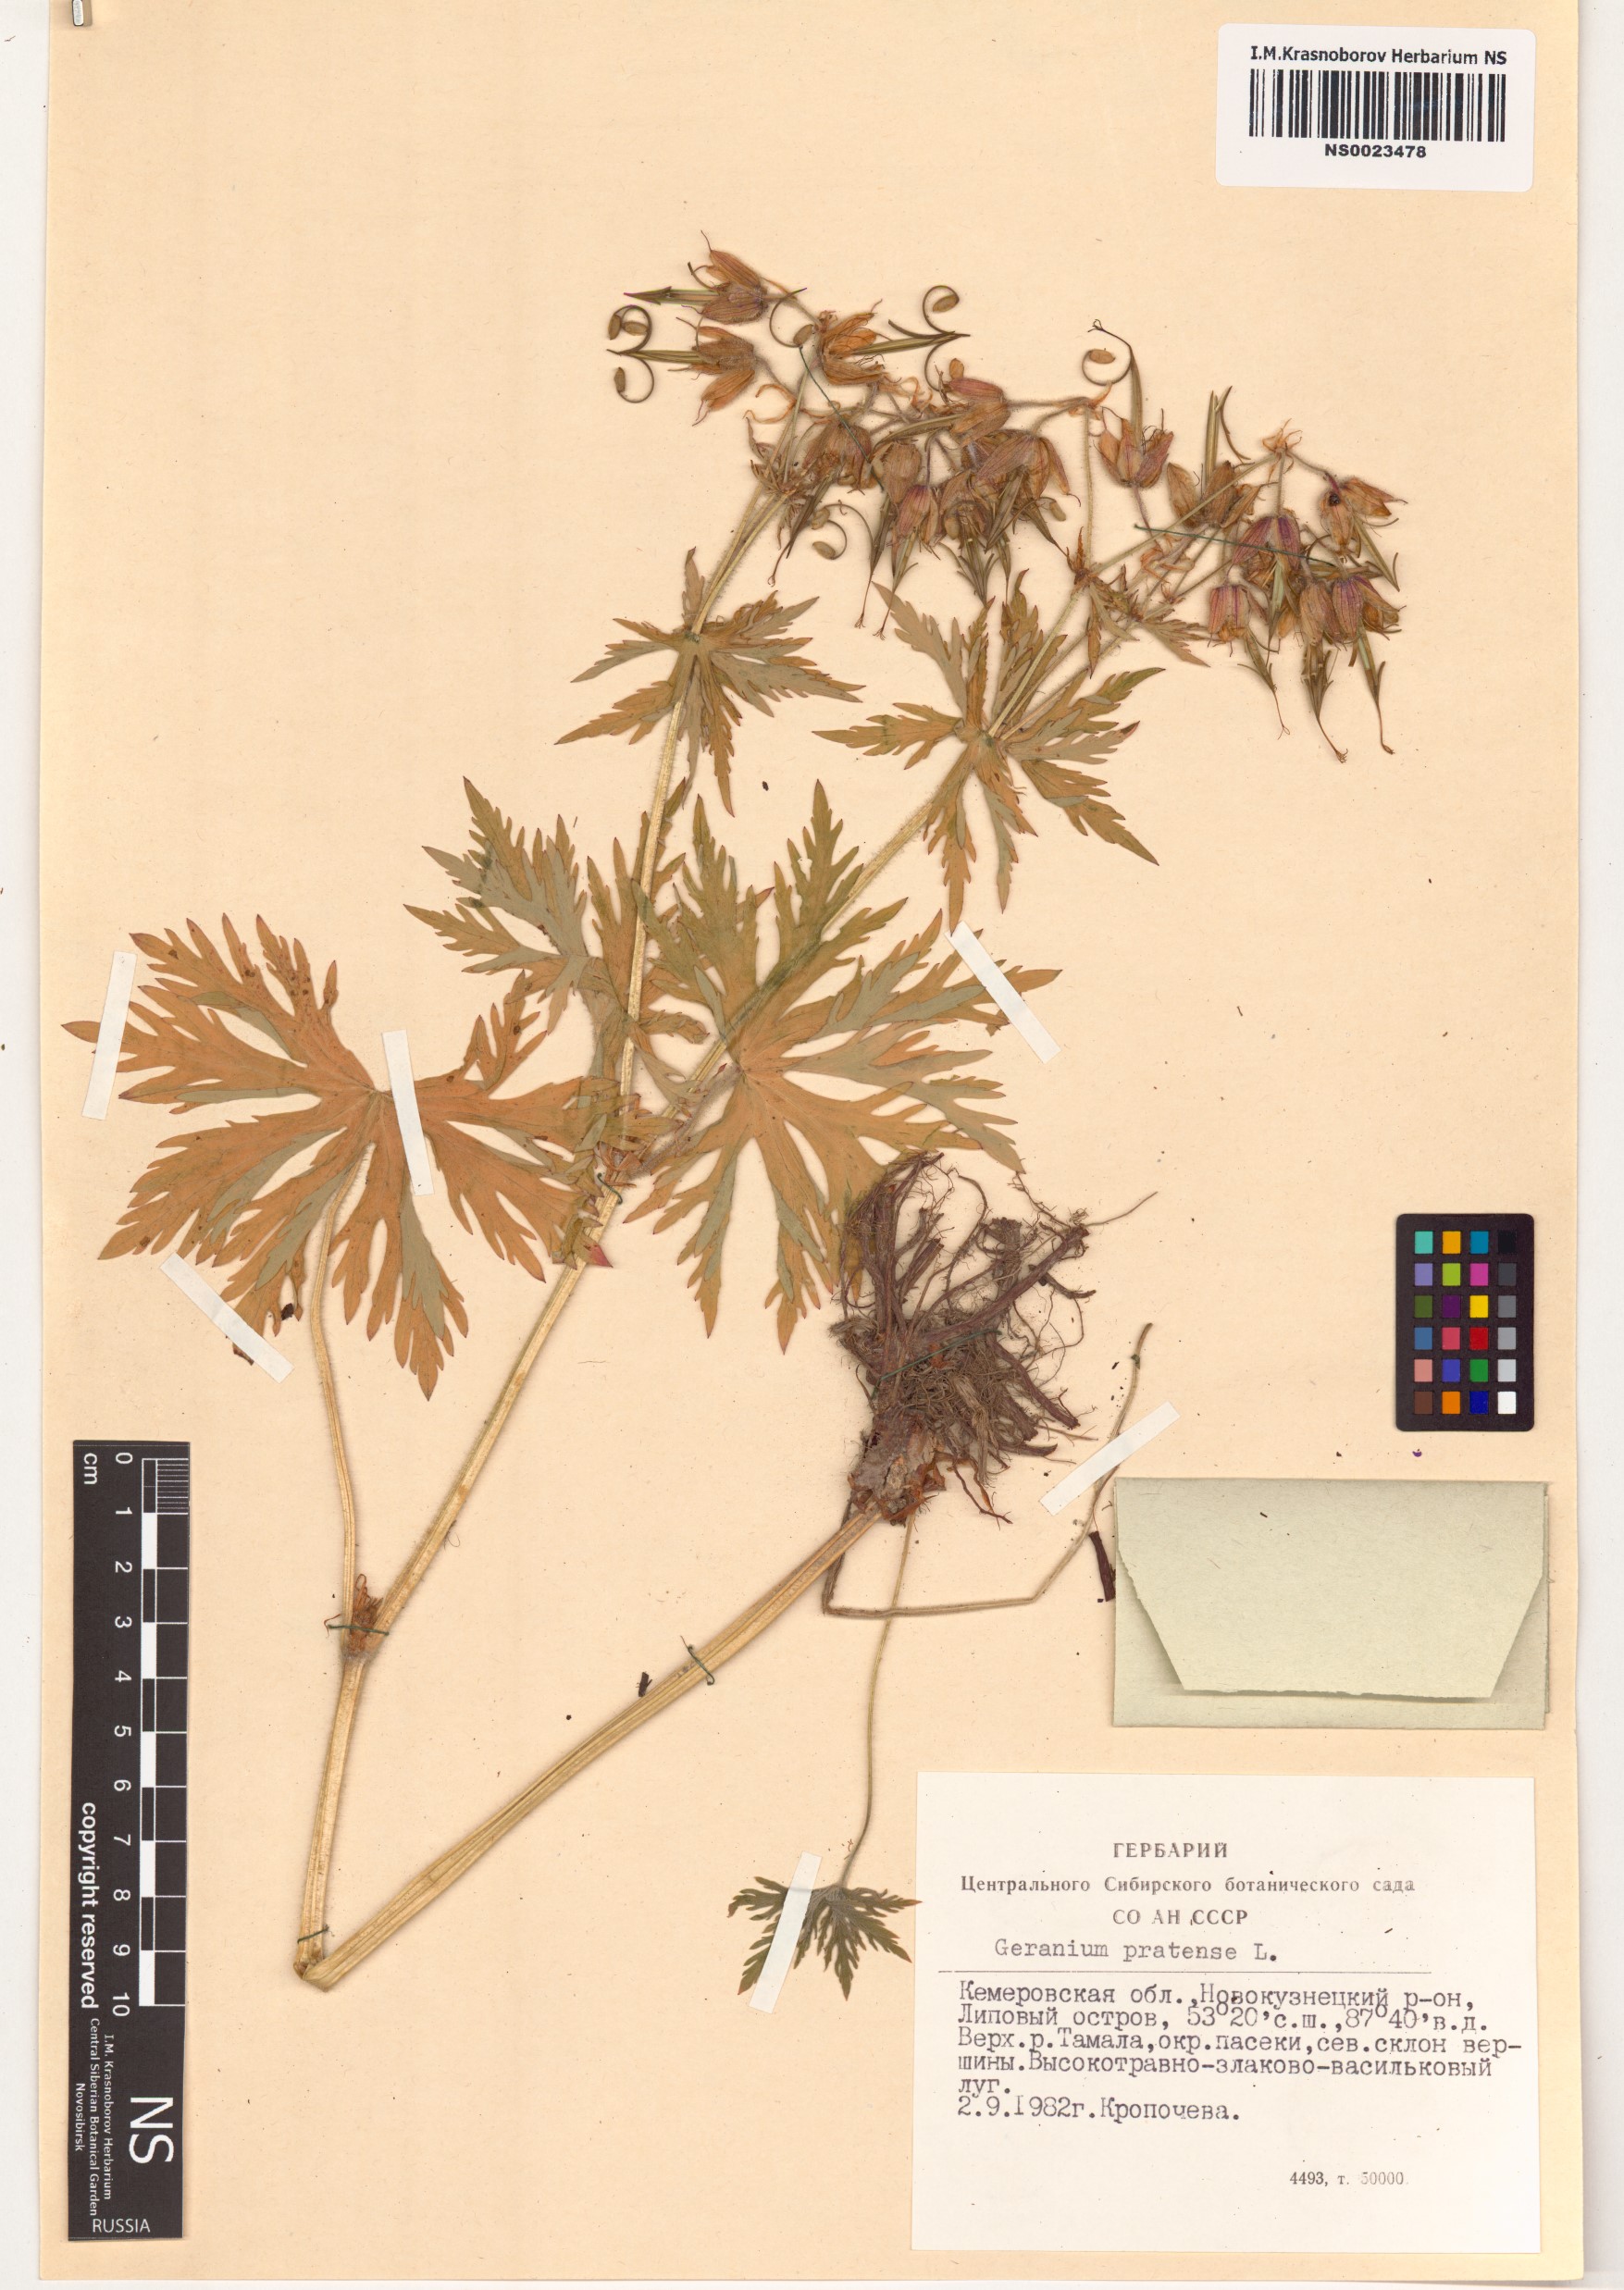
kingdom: Plantae
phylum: Tracheophyta
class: Magnoliopsida
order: Geraniales
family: Geraniaceae
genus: Geranium
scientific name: Geranium pratense
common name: Meadow crane's-bill
